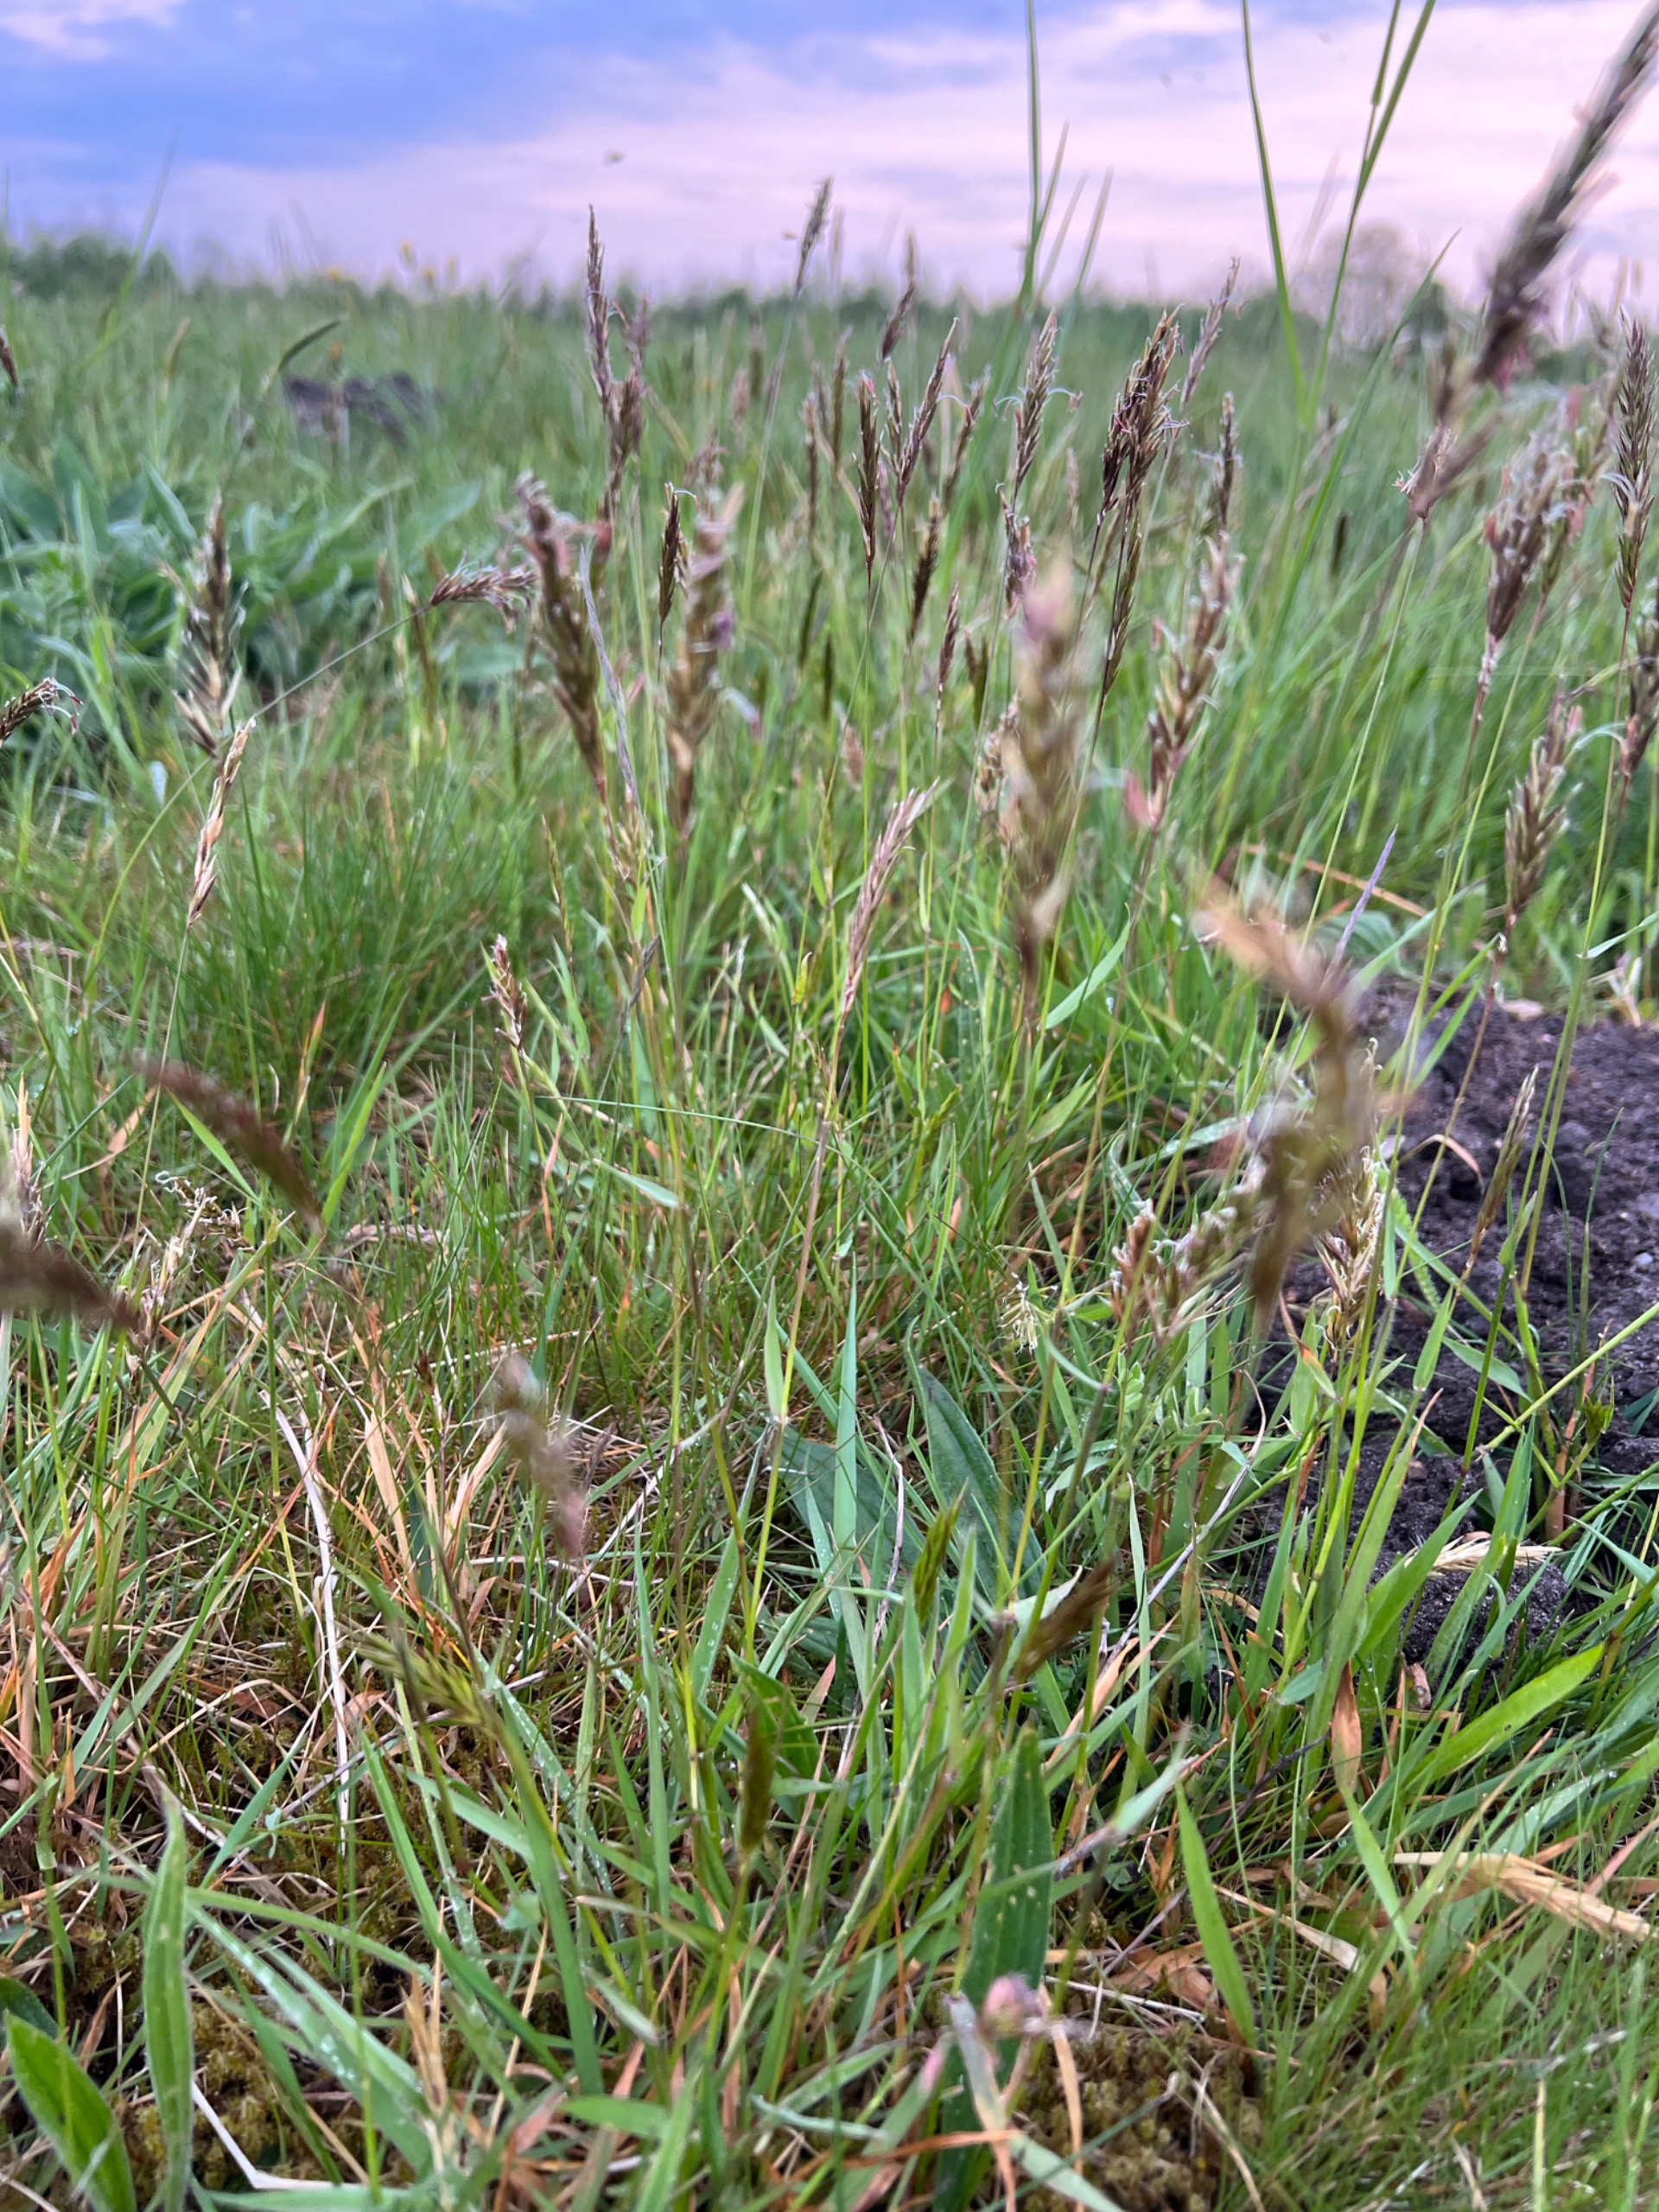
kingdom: Plantae
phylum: Tracheophyta
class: Liliopsida
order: Poales
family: Poaceae
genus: Anthoxanthum
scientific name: Anthoxanthum odoratum
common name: Vellugtende gulaks
